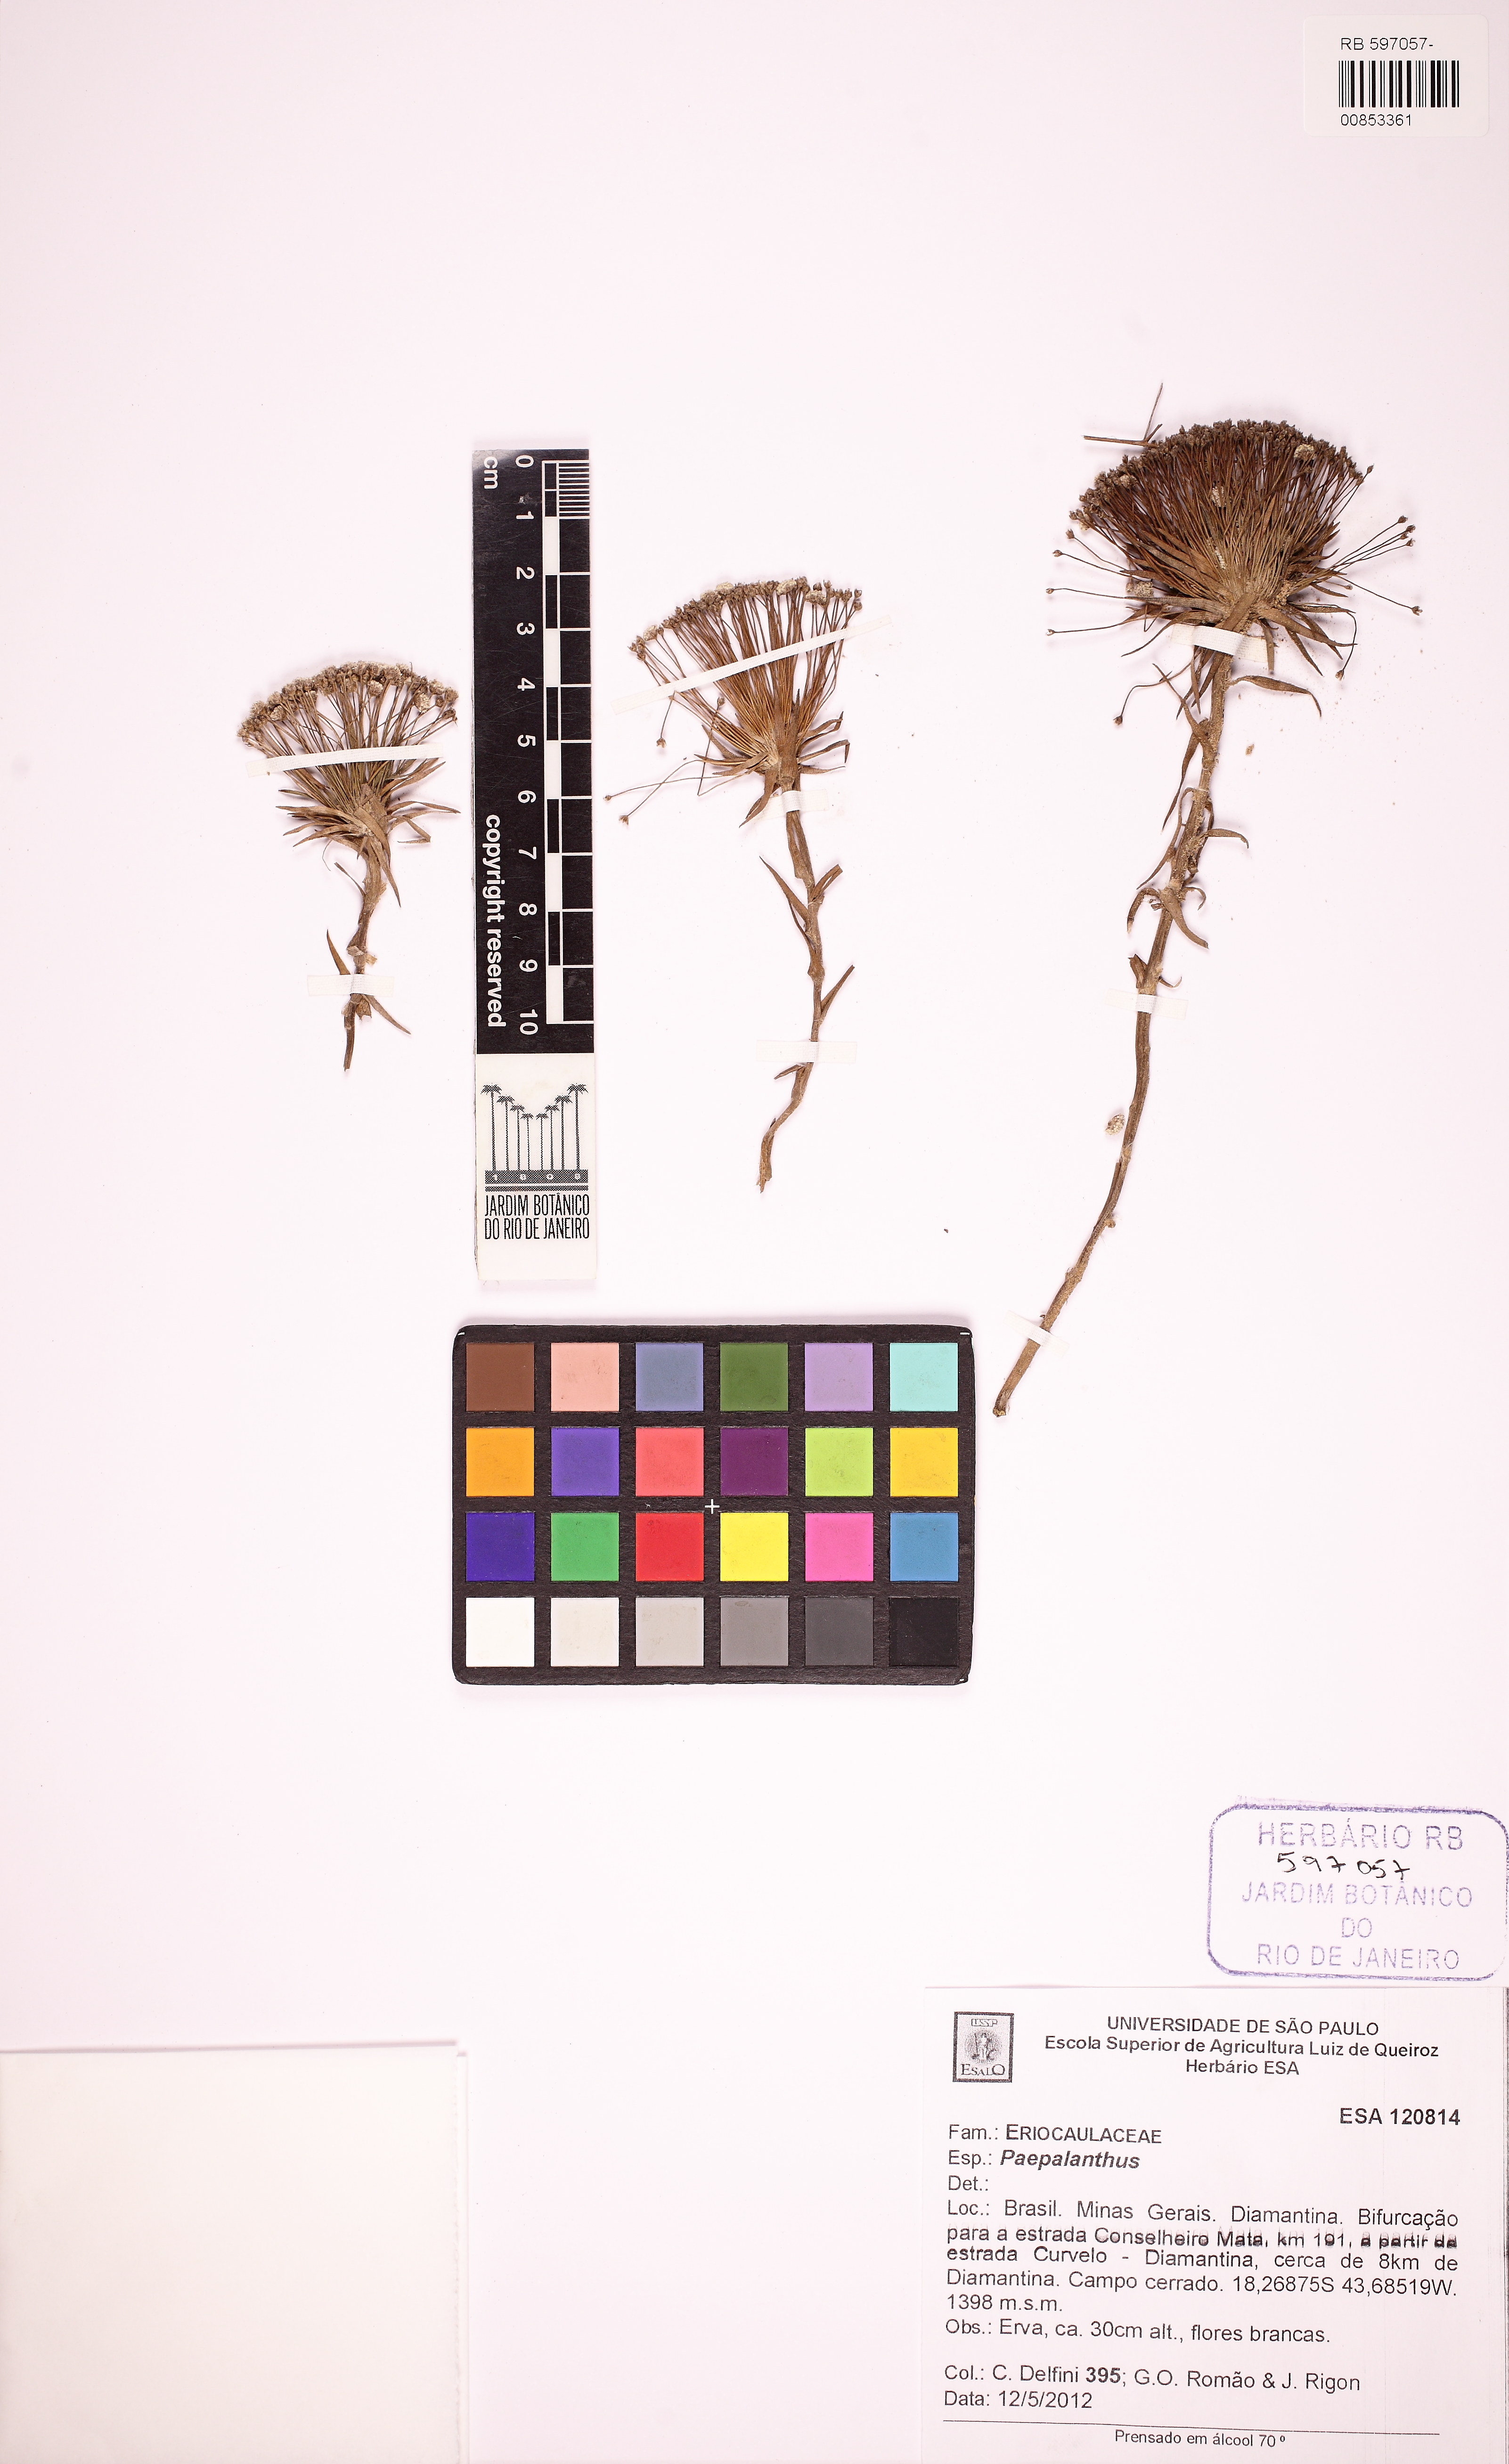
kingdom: Plantae
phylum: Tracheophyta
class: Liliopsida
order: Poales
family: Eriocaulaceae
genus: Paepalanthus
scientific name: Paepalanthus
